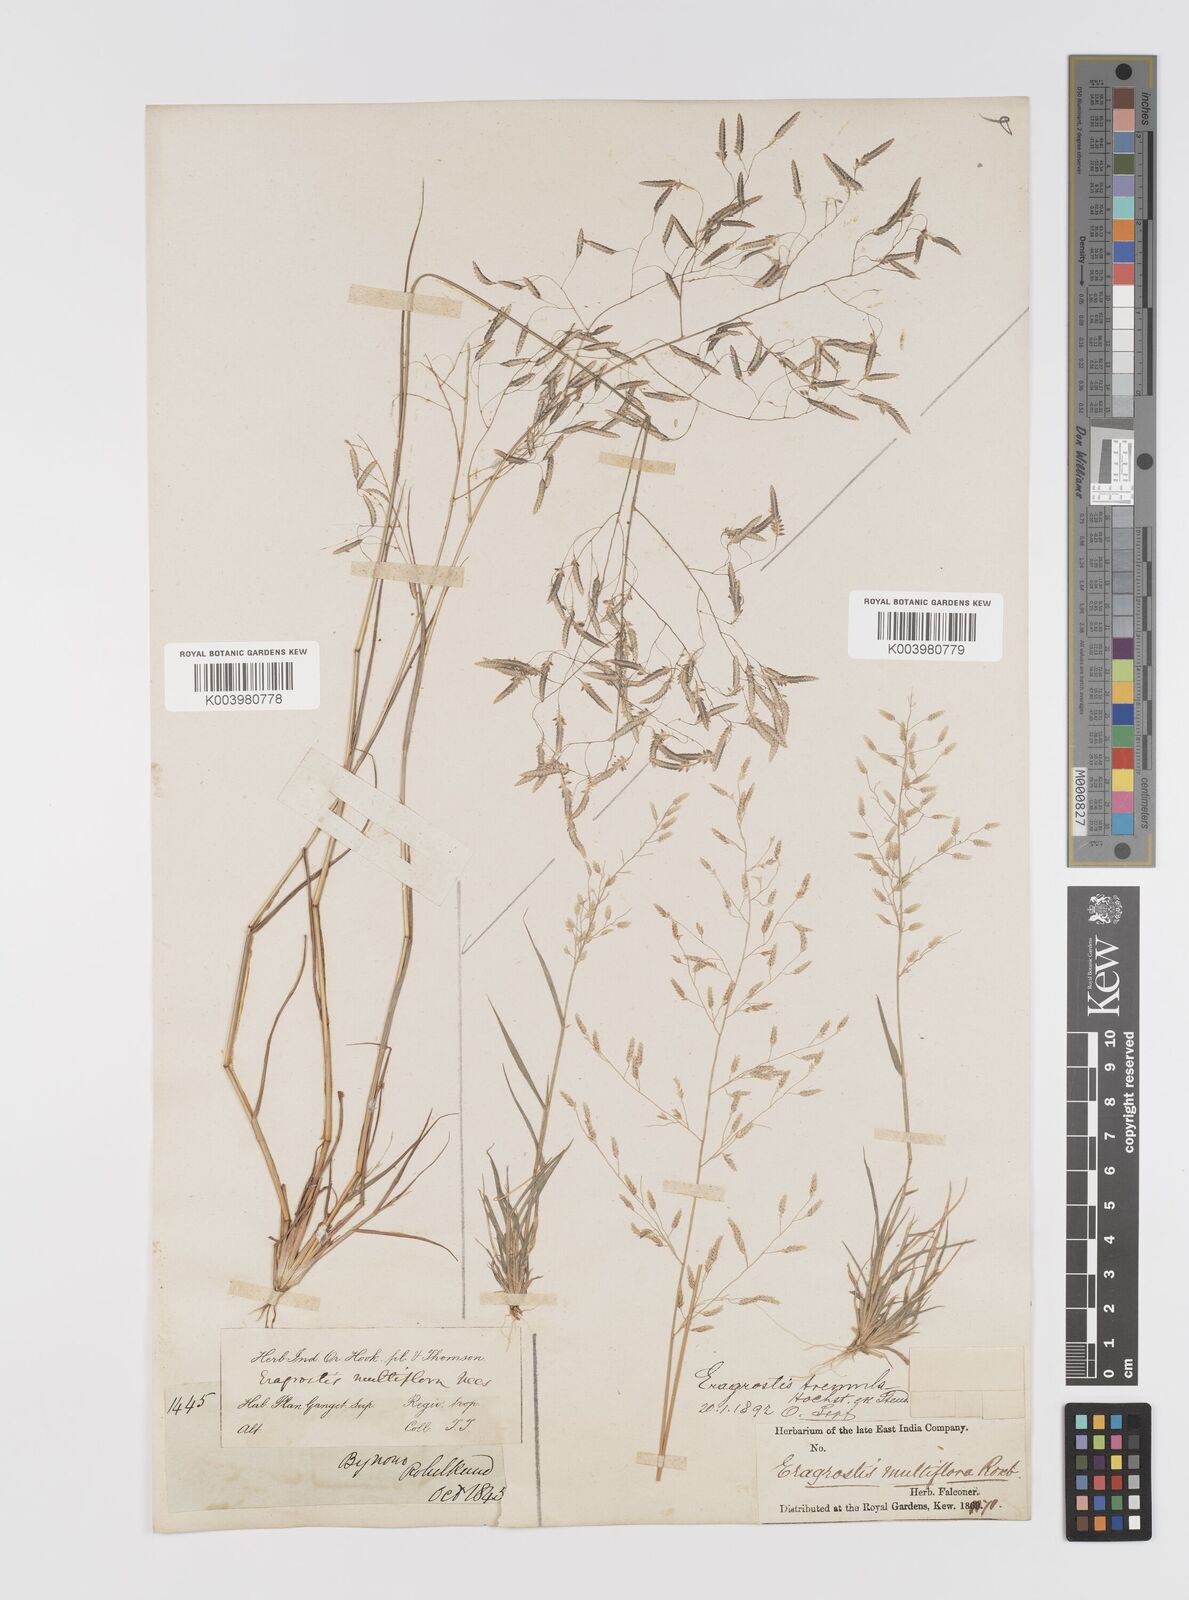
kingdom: Plantae
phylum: Tracheophyta
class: Liliopsida
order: Poales
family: Poaceae
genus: Eragrostis
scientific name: Eragrostis tremula
